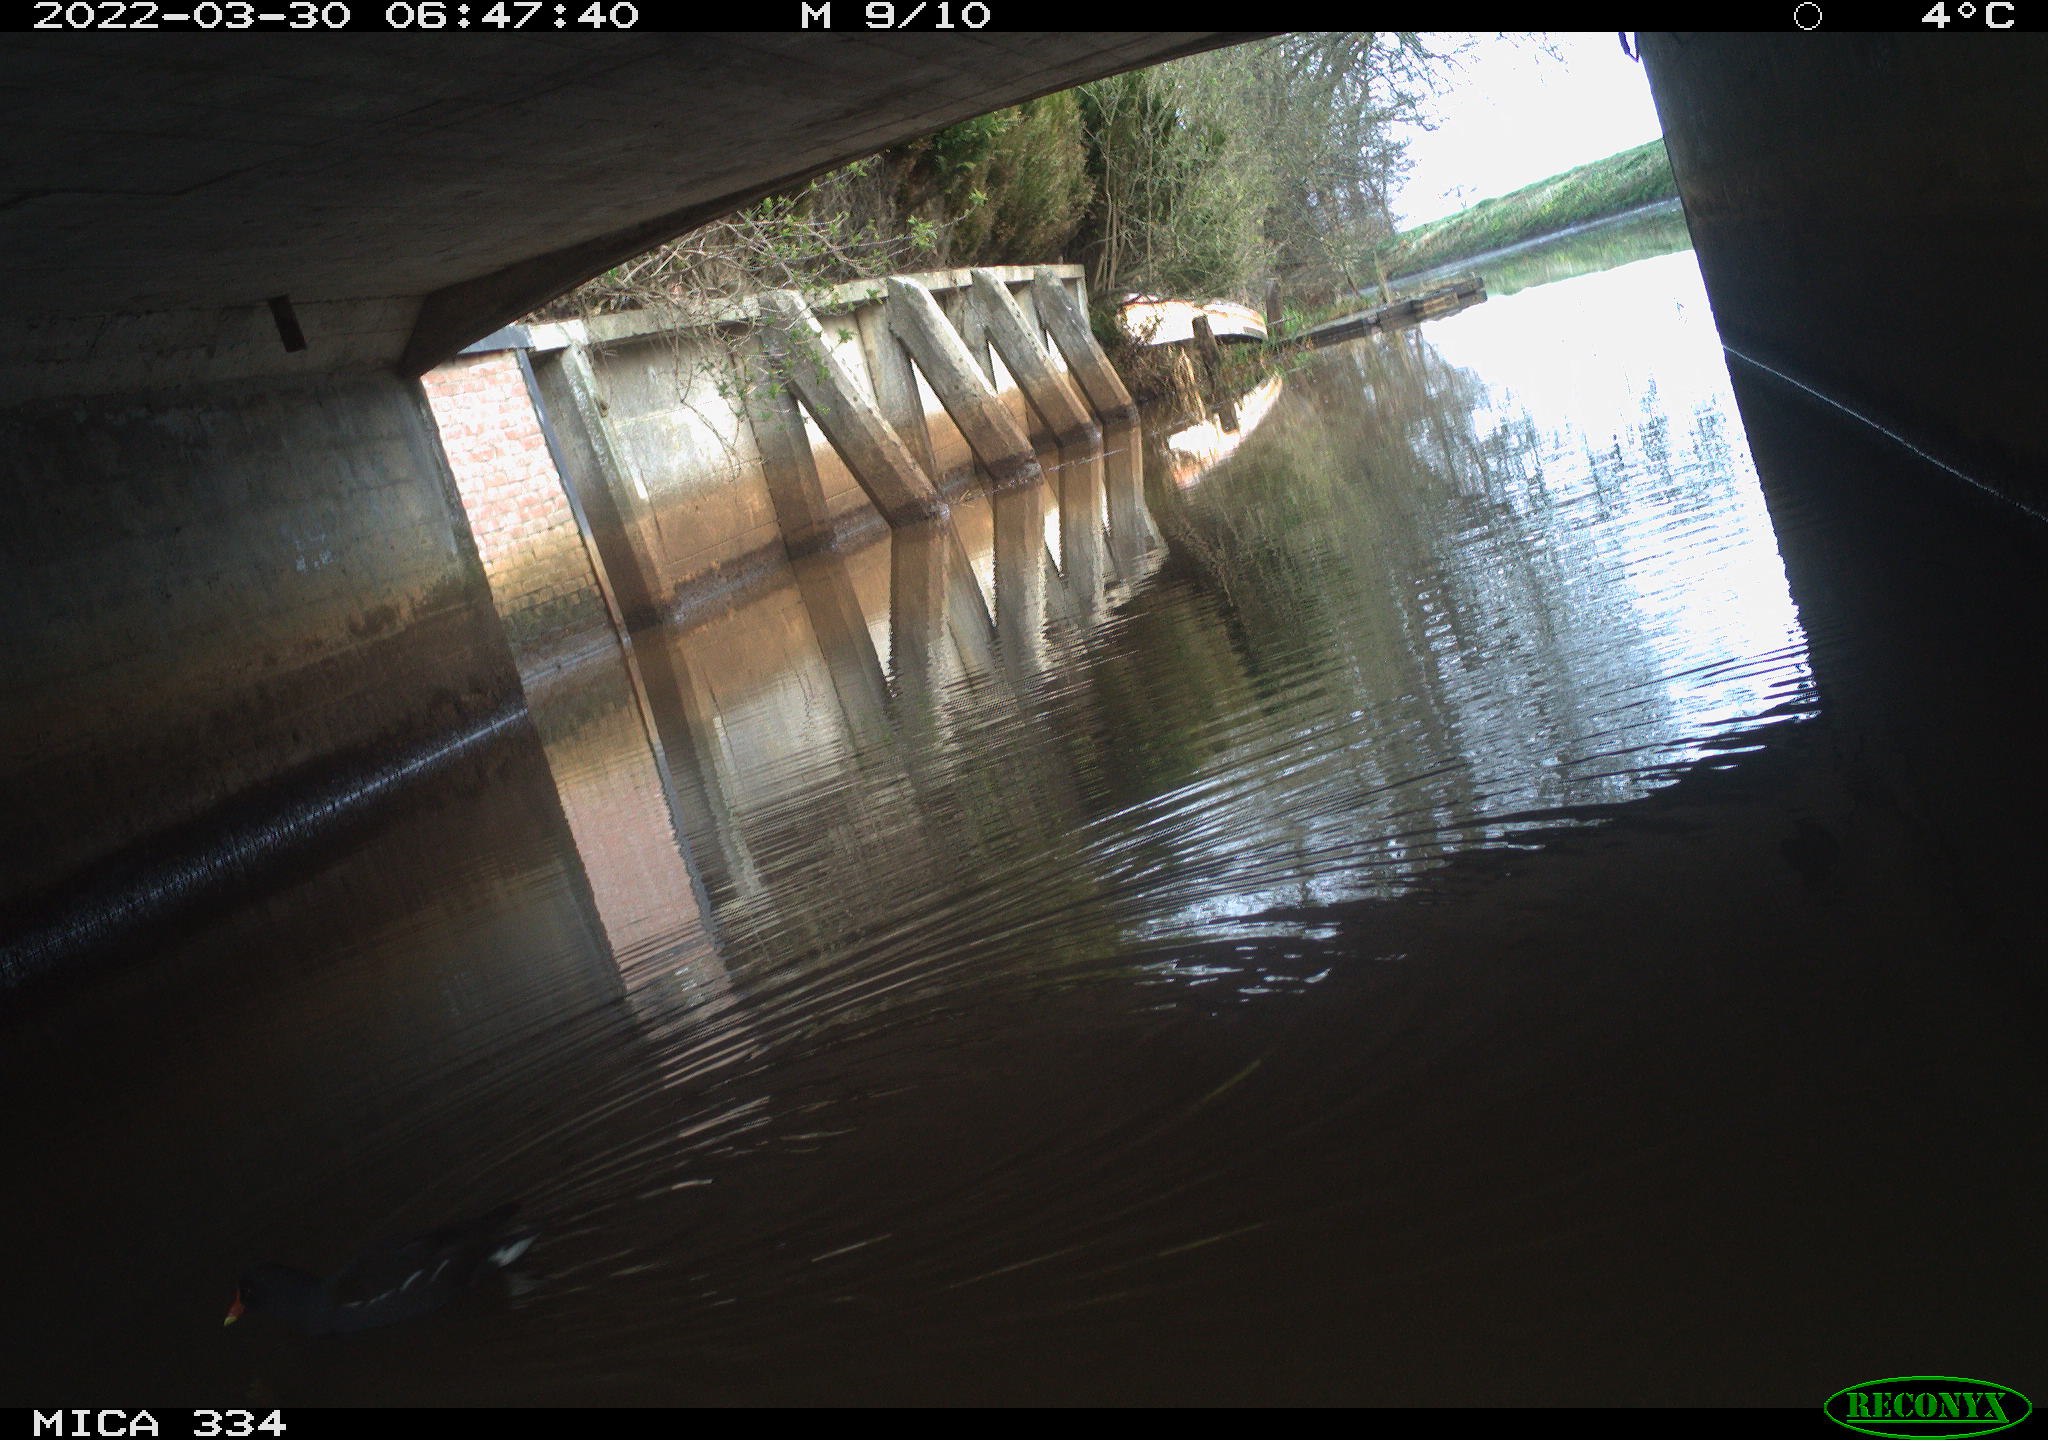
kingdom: Animalia
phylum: Chordata
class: Aves
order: Gruiformes
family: Rallidae
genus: Gallinula
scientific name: Gallinula chloropus
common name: Common moorhen
